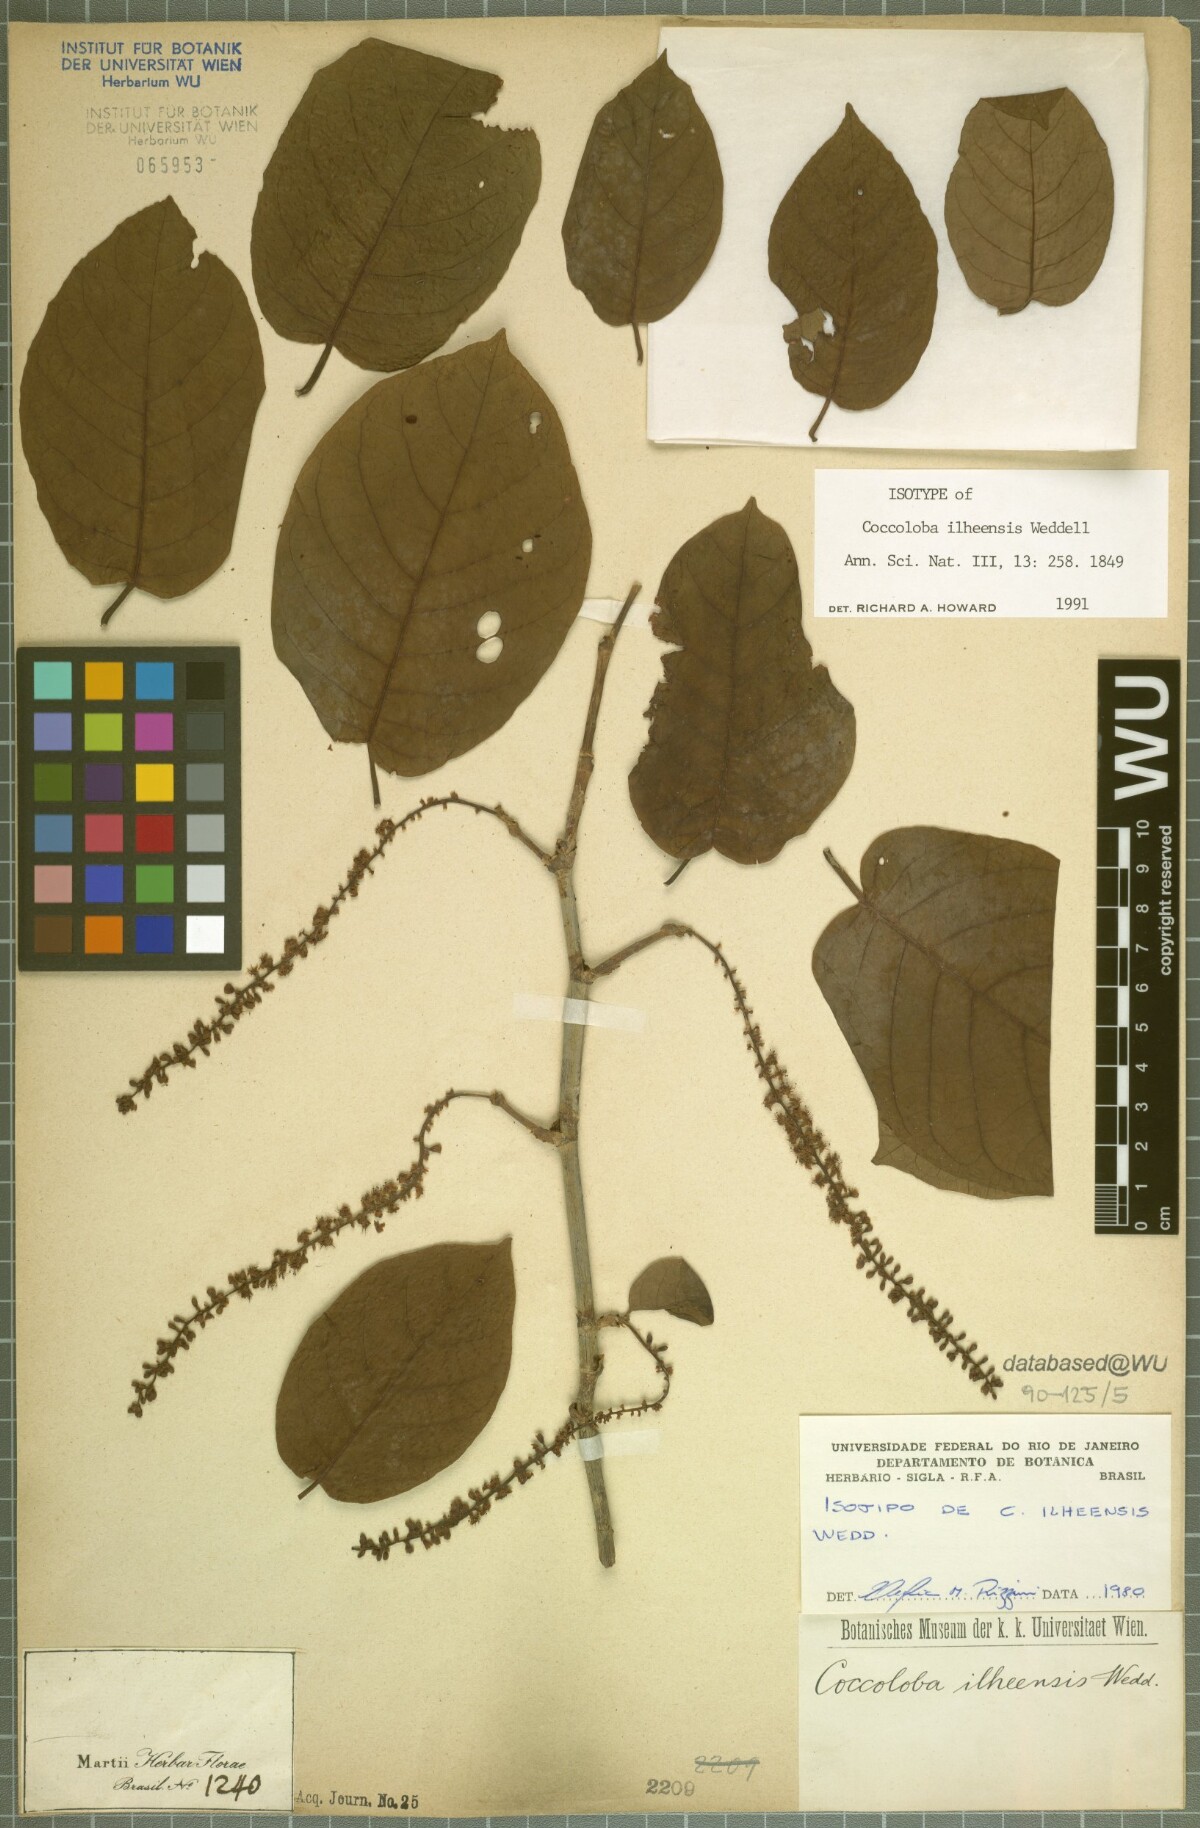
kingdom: Plantae
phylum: Tracheophyta
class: Magnoliopsida
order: Caryophyllales
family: Polygonaceae
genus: Coccoloba
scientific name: Coccoloba declinata
